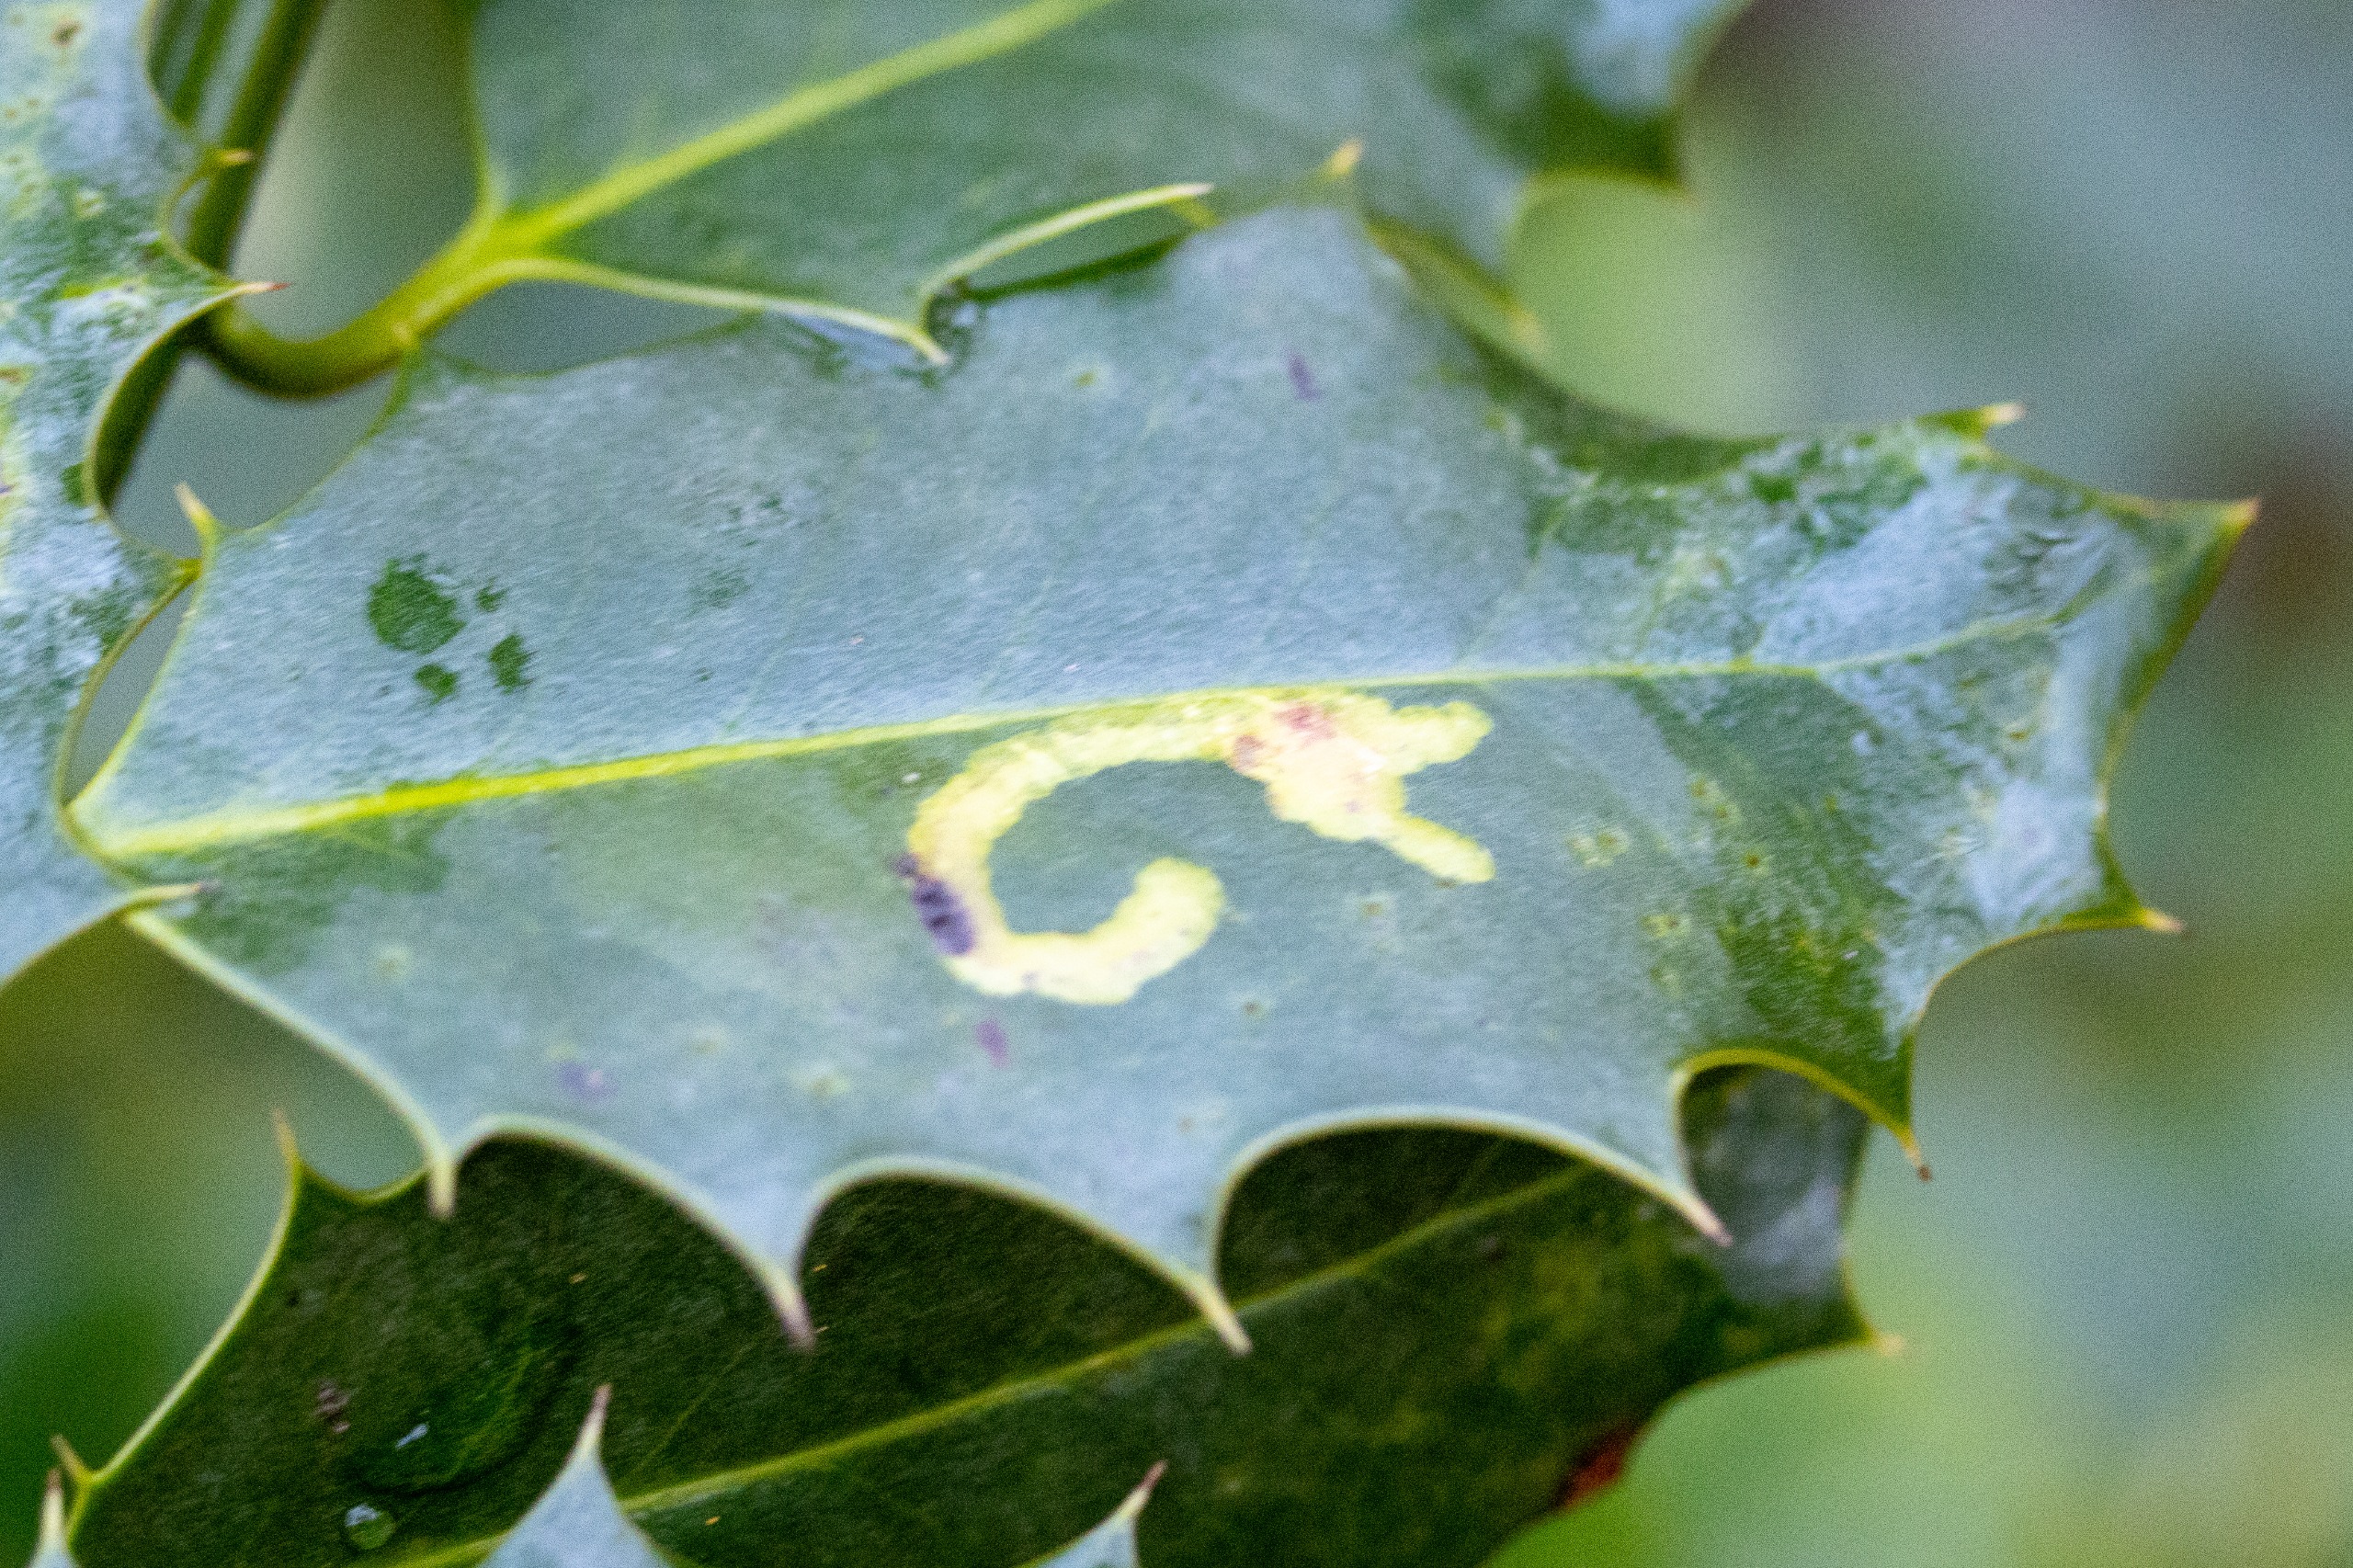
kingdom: Animalia
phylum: Arthropoda
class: Insecta
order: Diptera
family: Agromyzidae
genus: Phytomyza
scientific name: Phytomyza ilicis
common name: Kristtornminérflue
